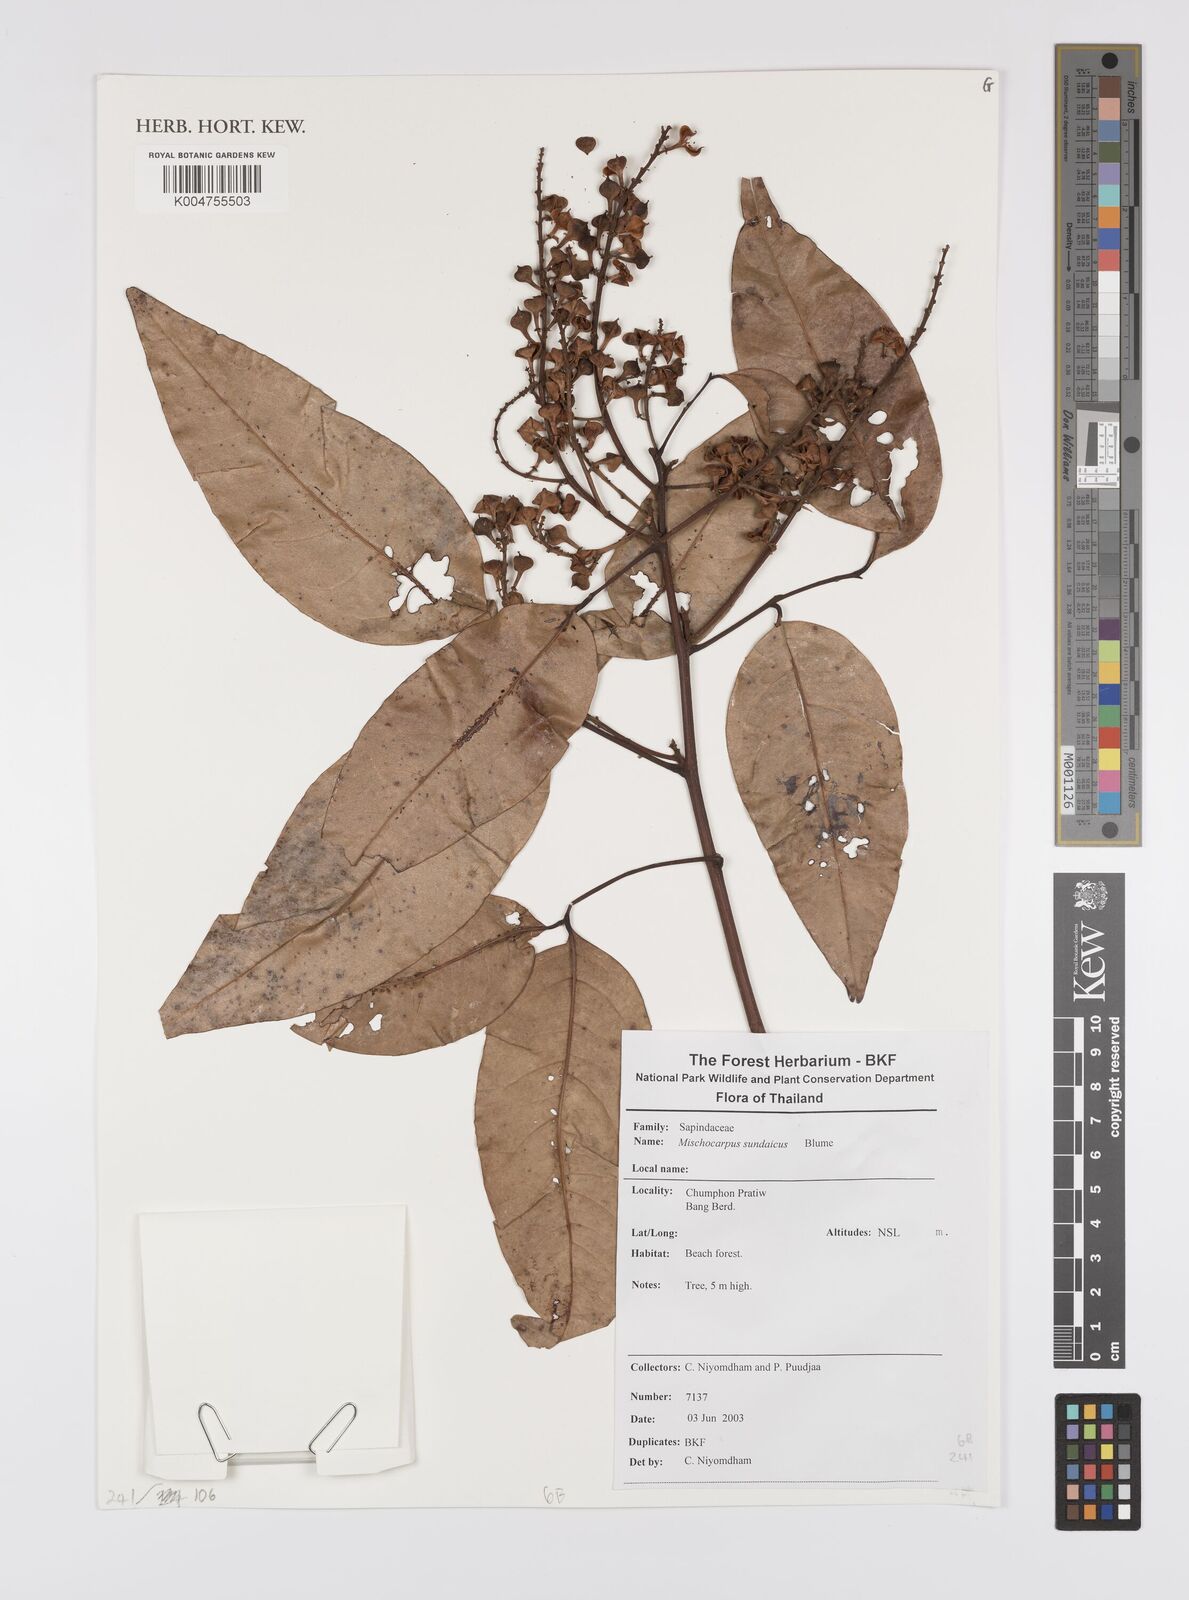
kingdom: Plantae
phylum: Tracheophyta
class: Magnoliopsida
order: Sapindales
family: Sapindaceae
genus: Mischocarpus
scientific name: Mischocarpus sundaicus
